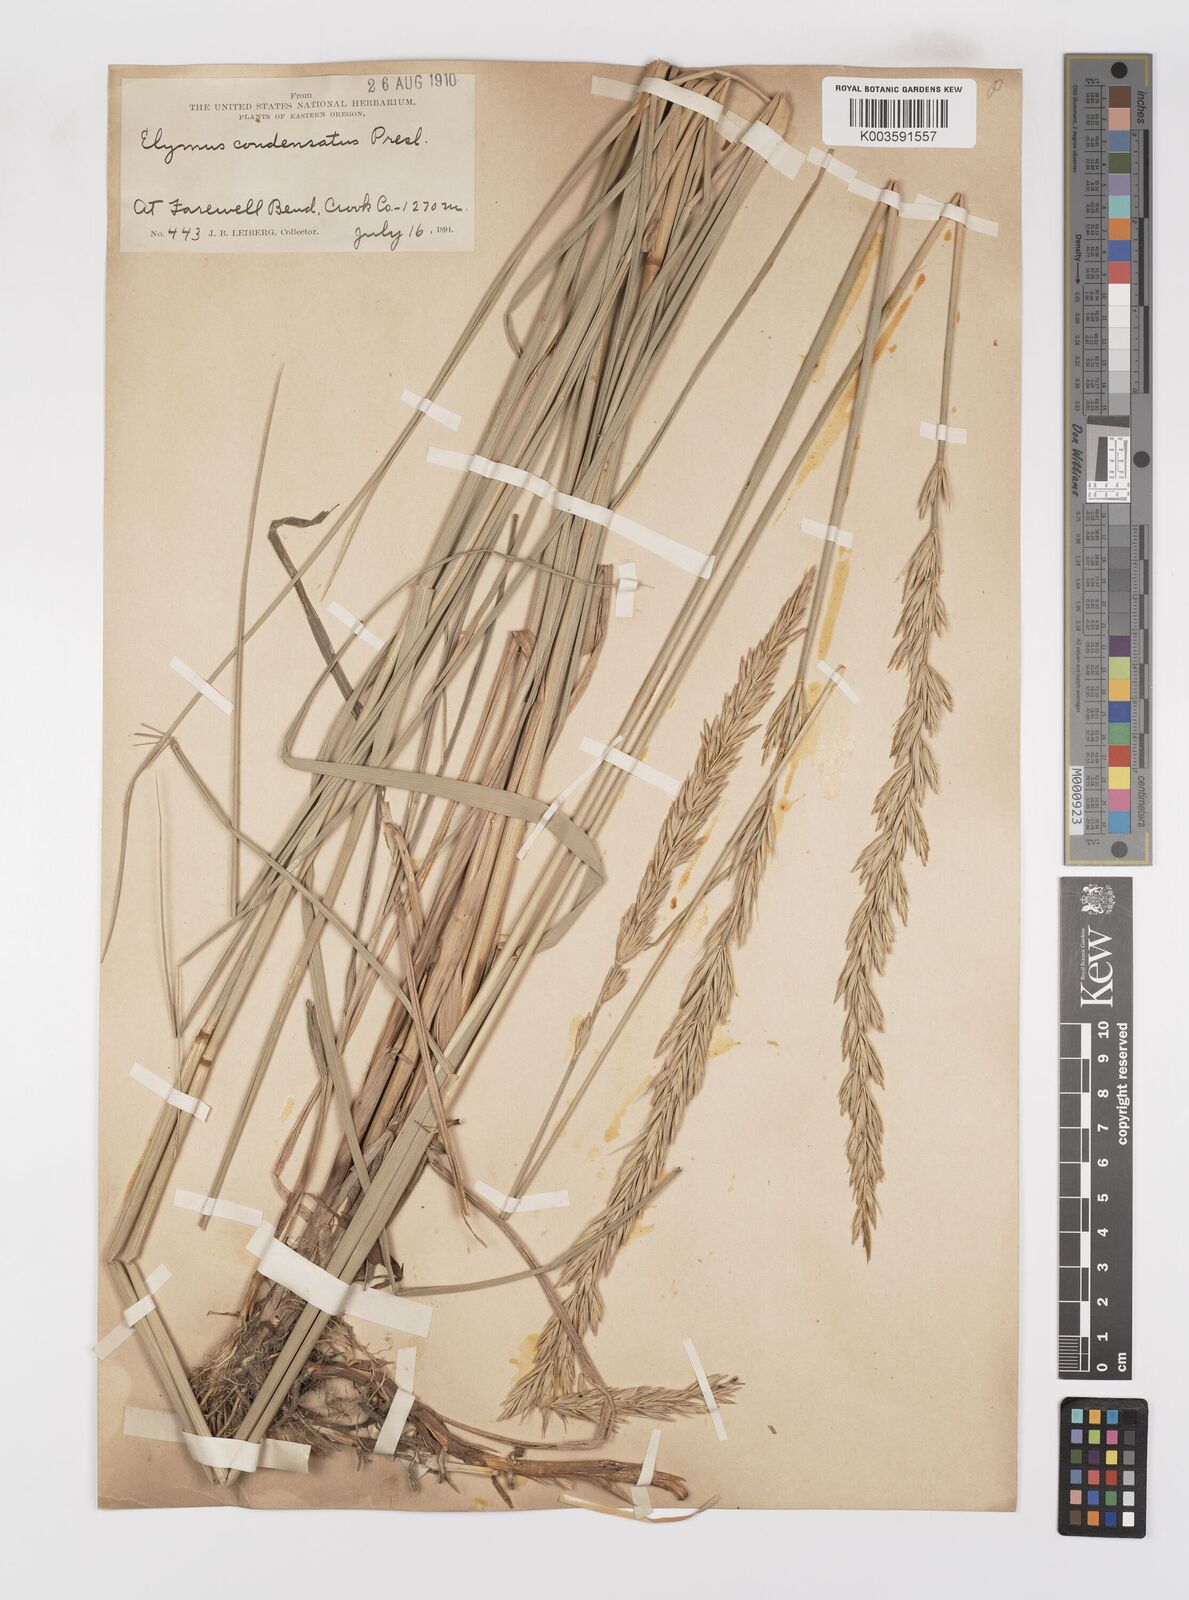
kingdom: Plantae
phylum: Tracheophyta
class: Liliopsida
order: Poales
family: Poaceae
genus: Leymus
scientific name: Leymus condensatus
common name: Giant wild rye
